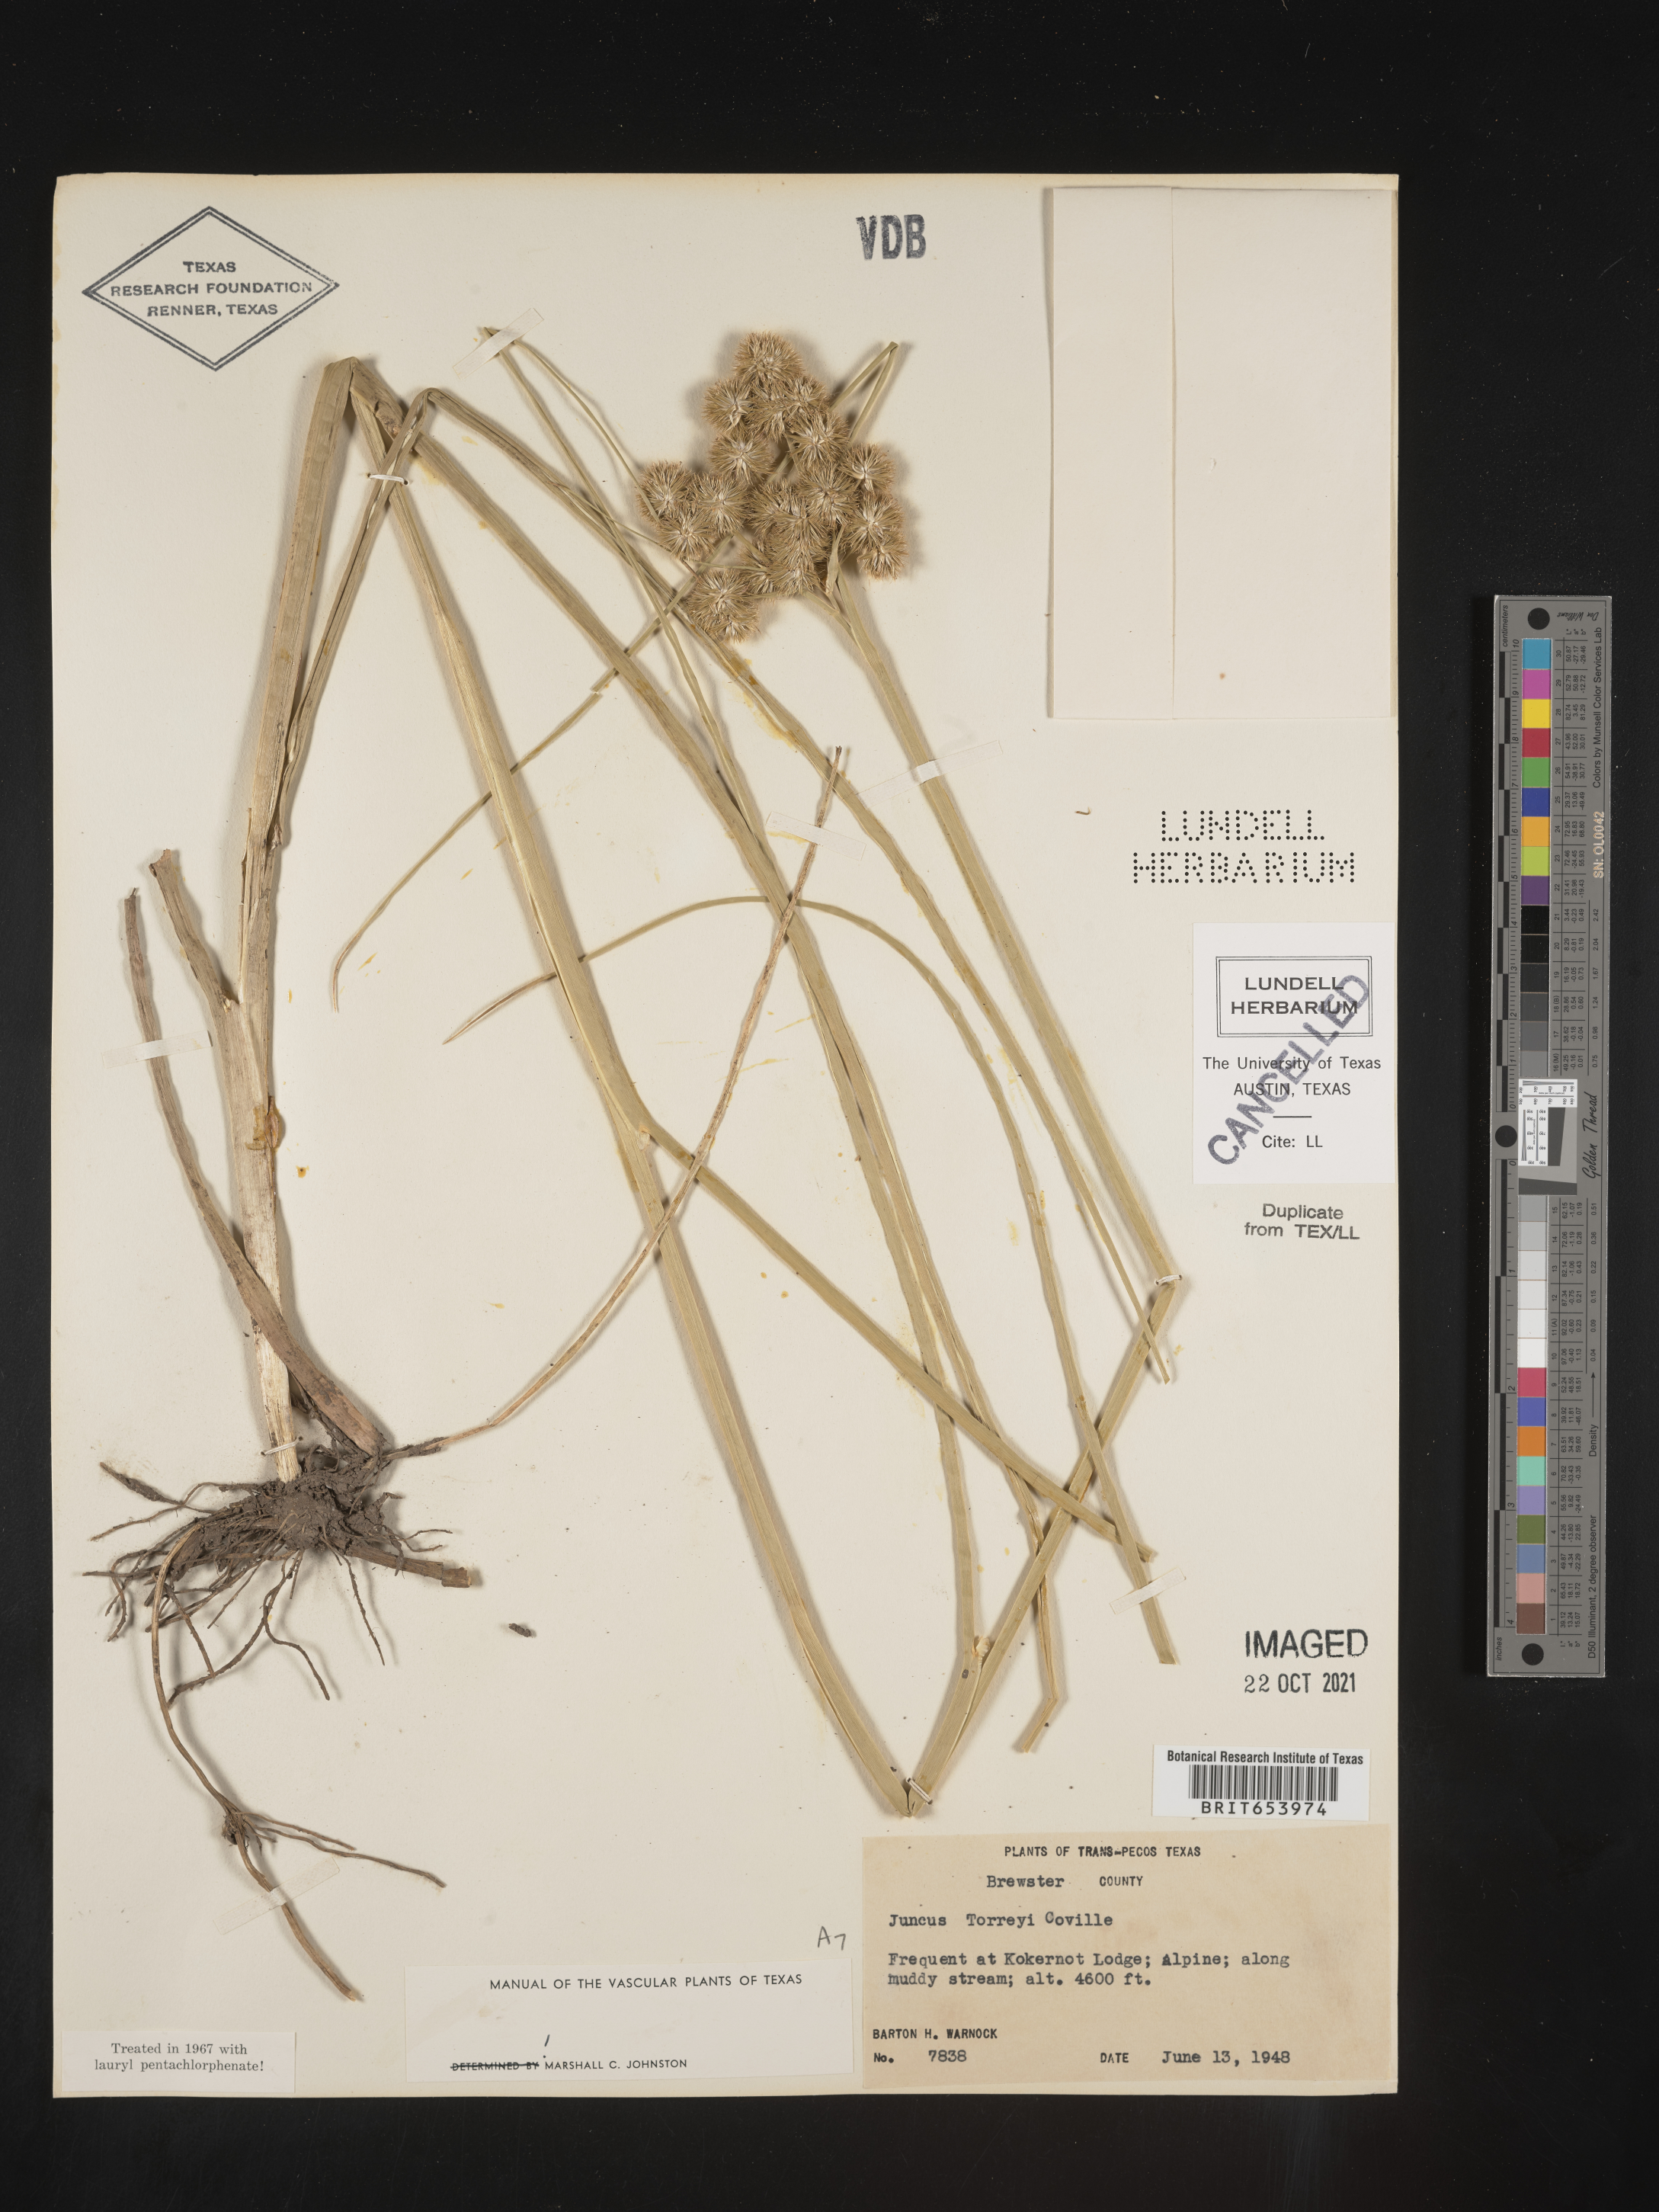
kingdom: Plantae
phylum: Tracheophyta
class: Liliopsida
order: Poales
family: Juncaceae
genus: Juncus
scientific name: Juncus torreyi
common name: Torrey's rush
